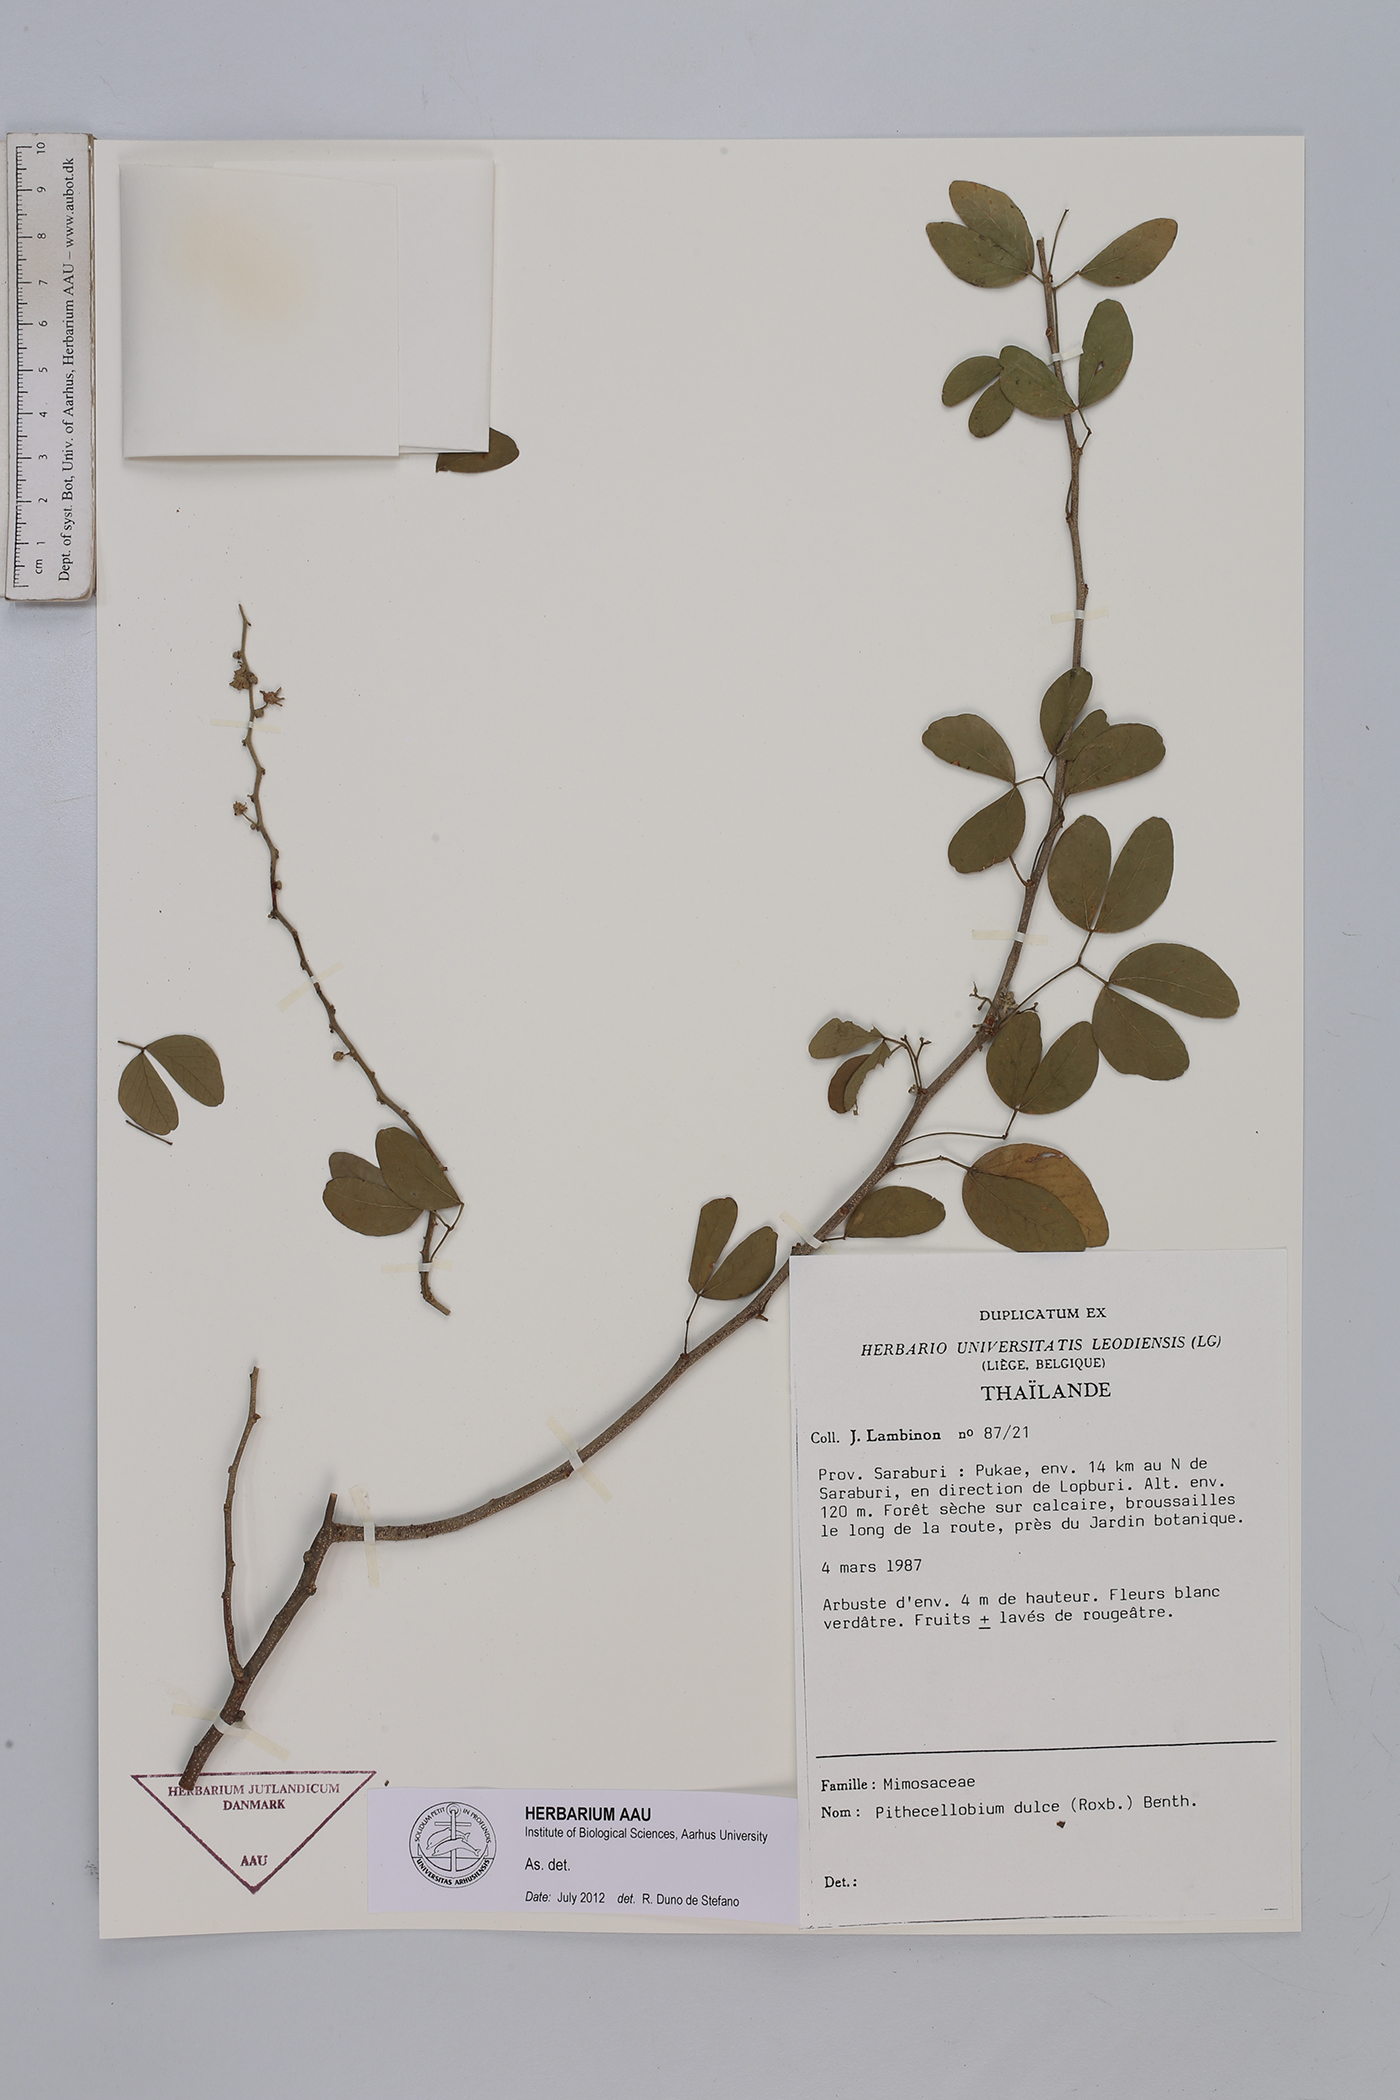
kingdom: Plantae
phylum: Tracheophyta
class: Magnoliopsida
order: Fabales
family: Fabaceae
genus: Pithecellobium
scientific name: Pithecellobium dulce
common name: Monkeypod
